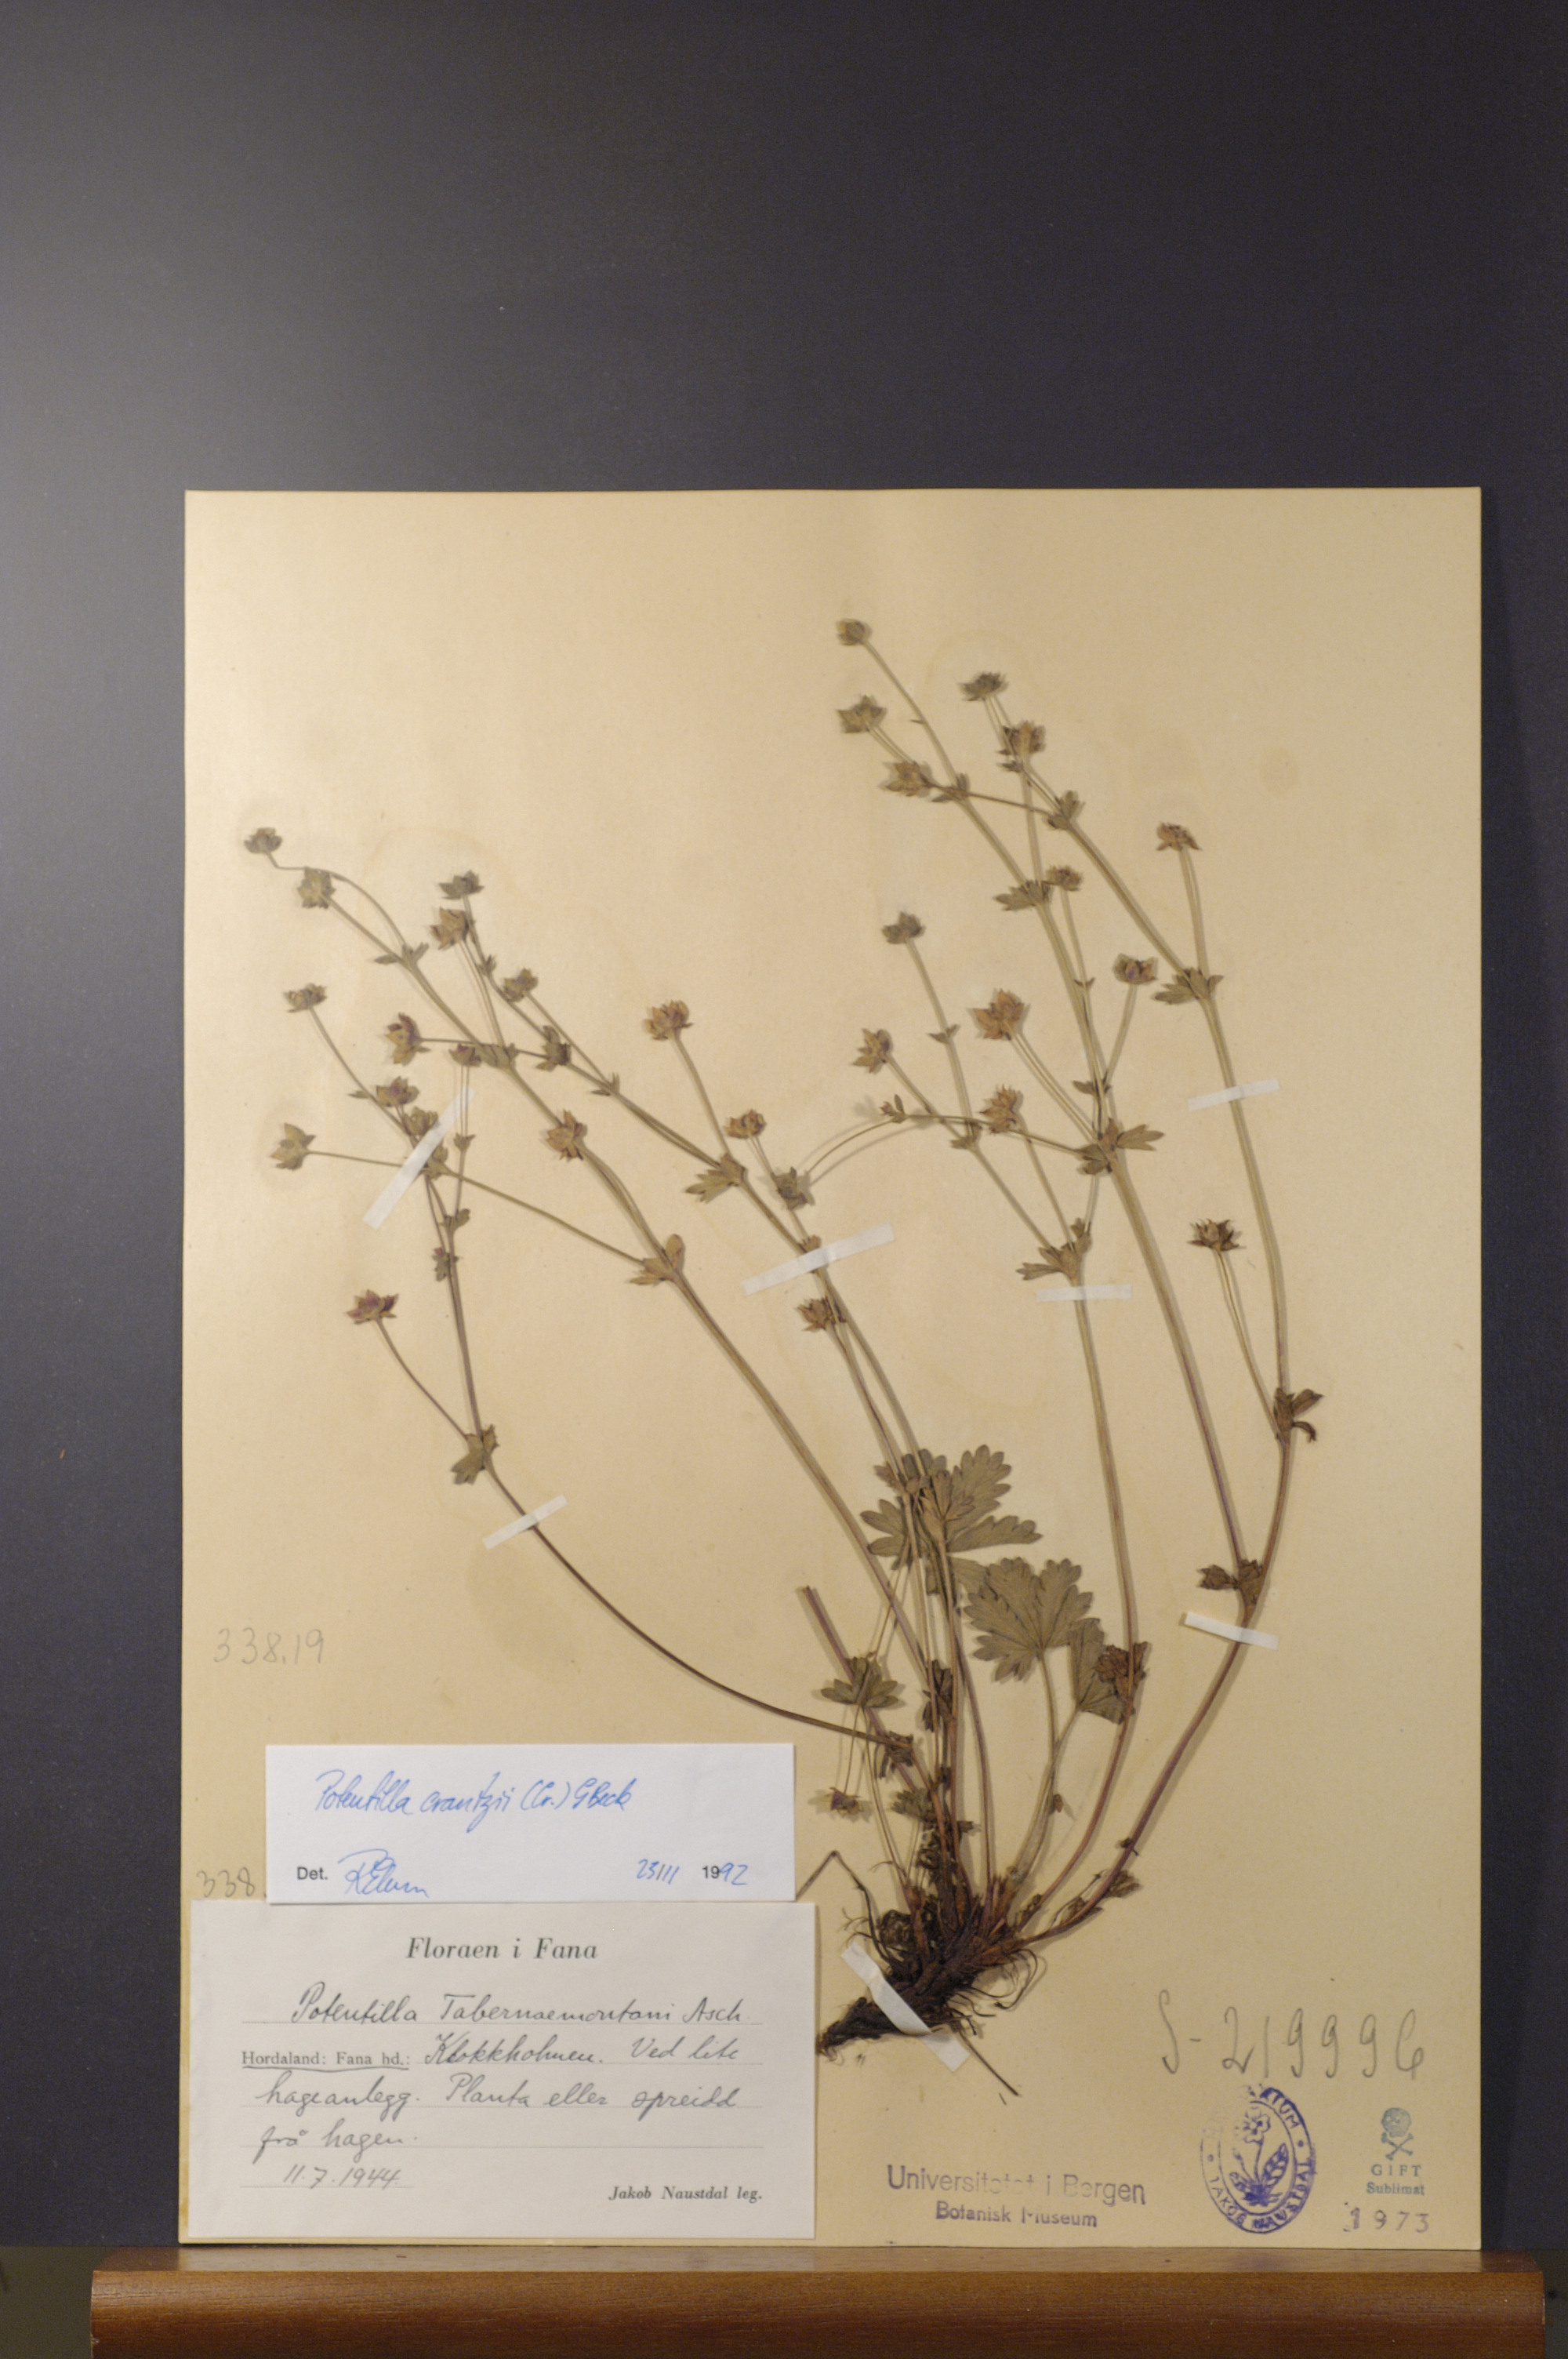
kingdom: Plantae
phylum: Tracheophyta
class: Magnoliopsida
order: Rosales
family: Rosaceae
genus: Potentilla
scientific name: Potentilla crantzii
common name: Alpine cinquefoil
